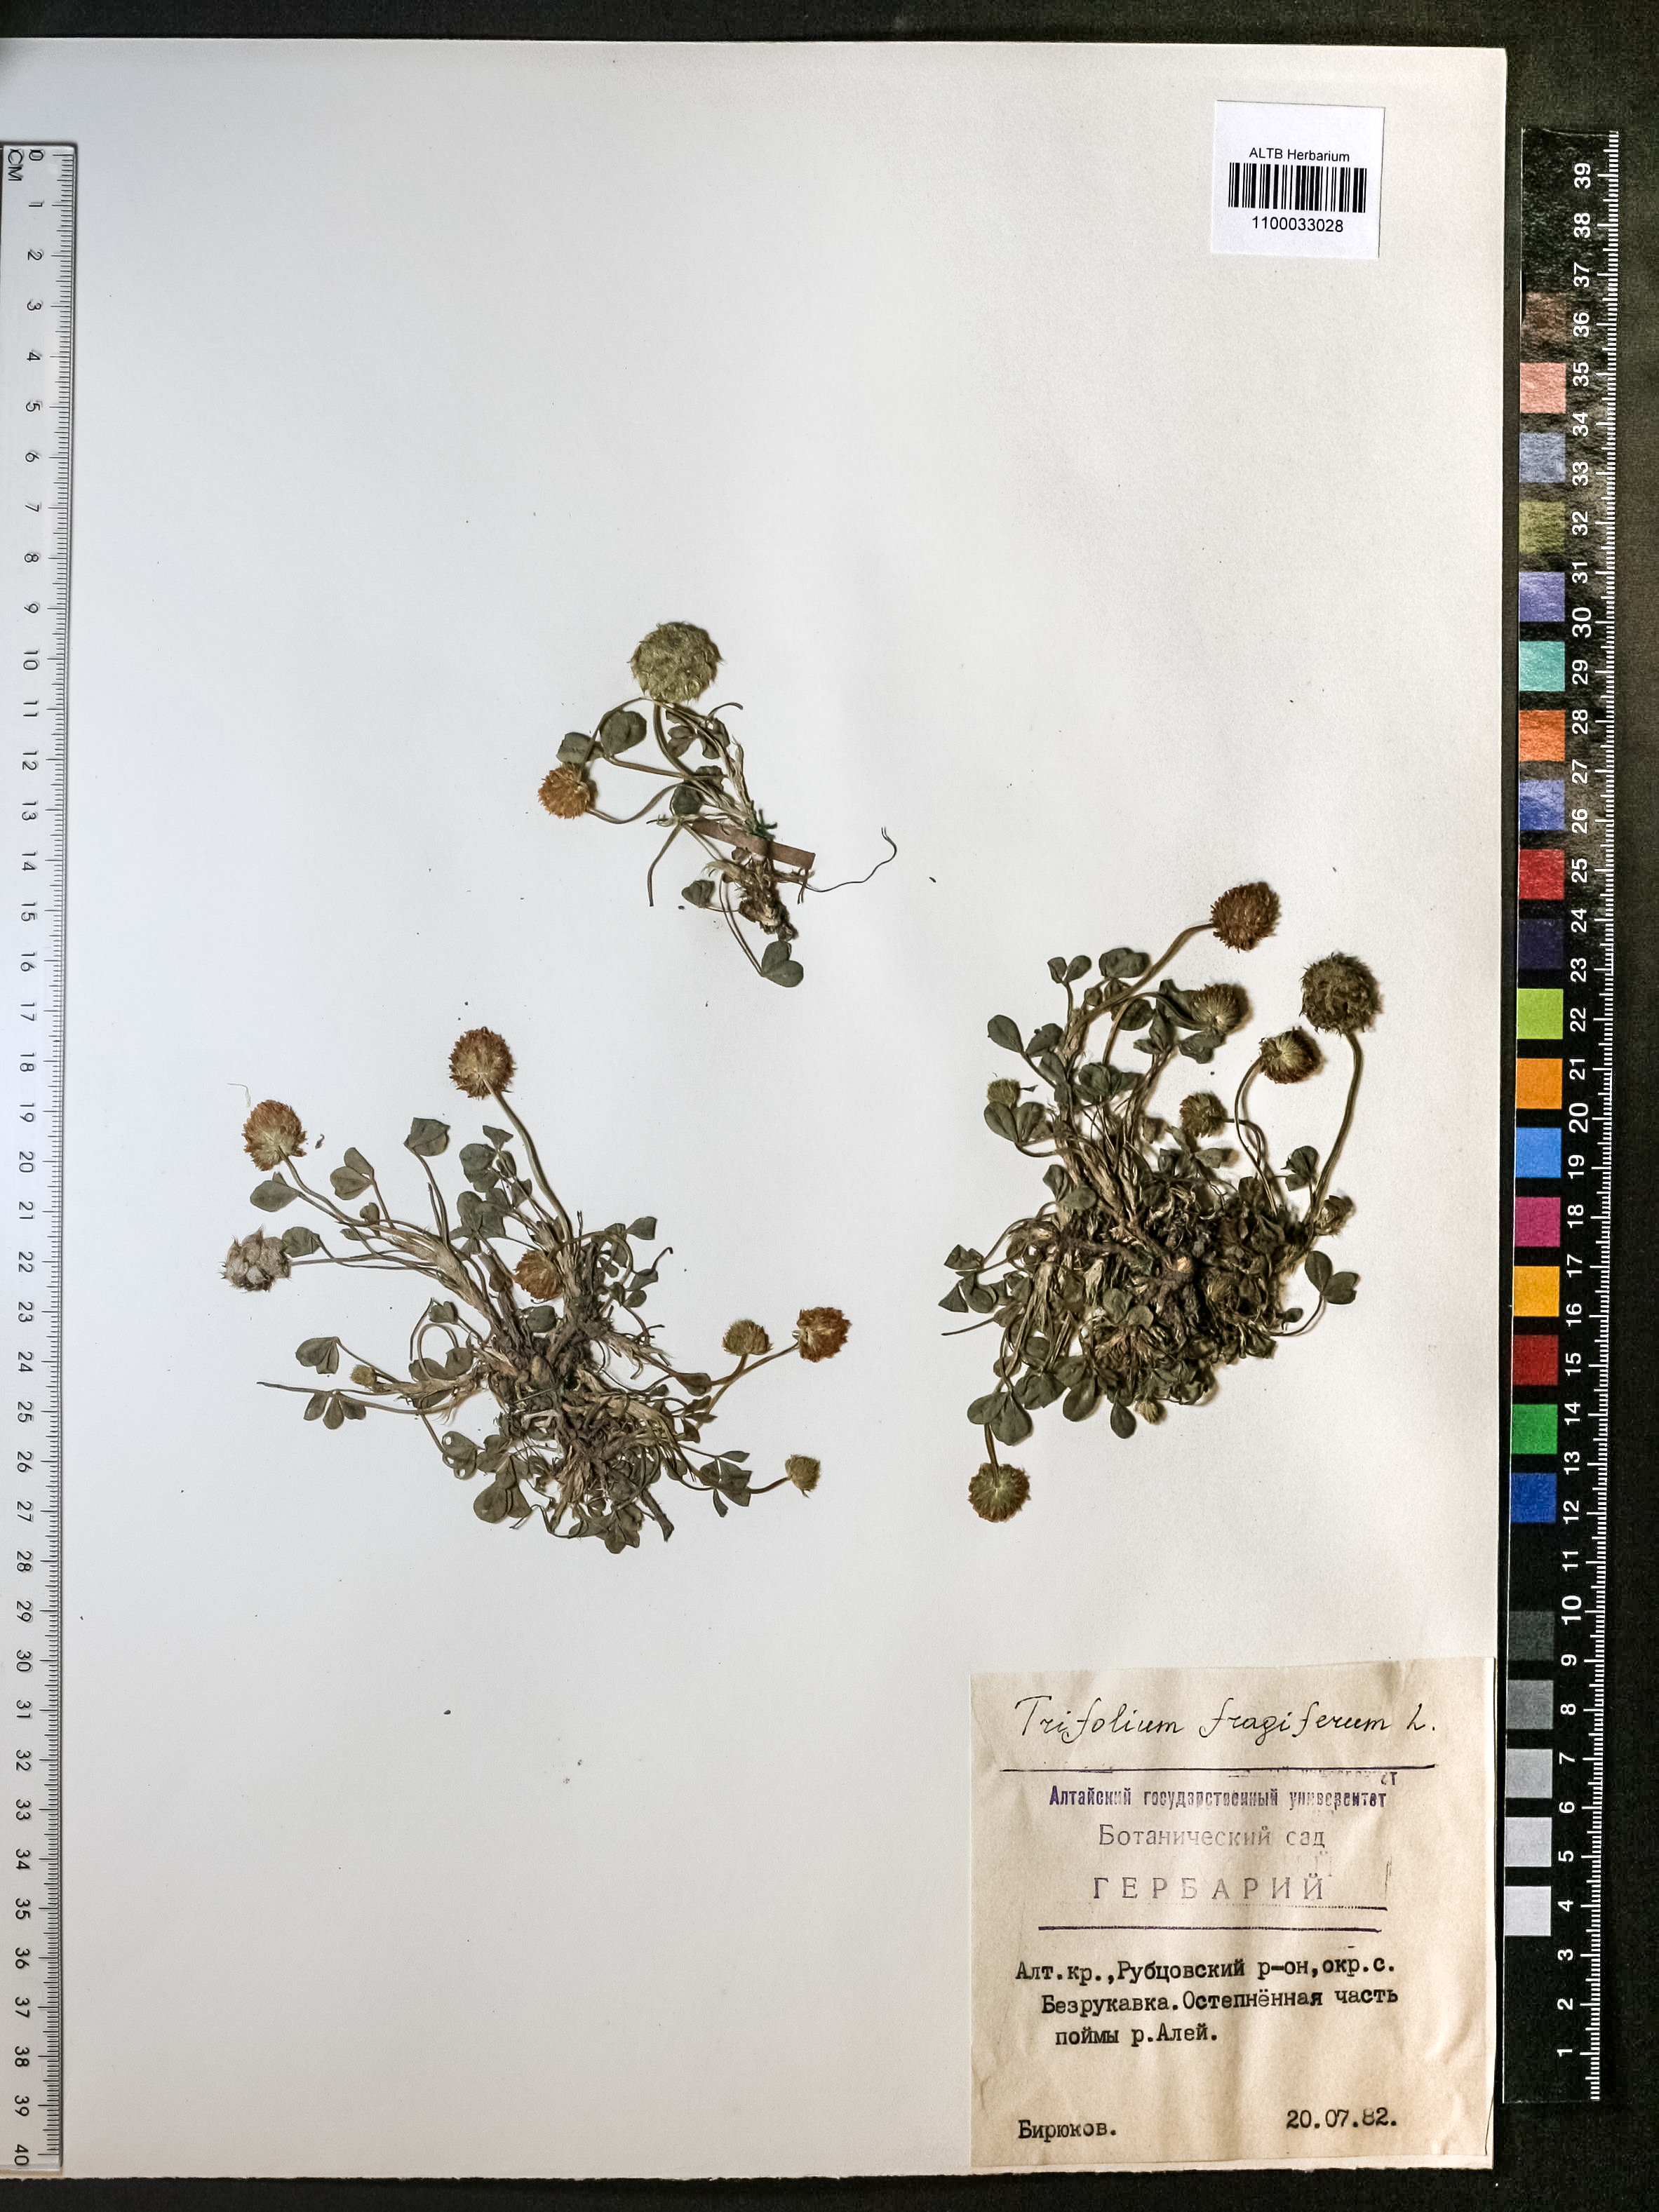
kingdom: Plantae
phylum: Tracheophyta
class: Magnoliopsida
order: Fabales
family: Fabaceae
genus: Trifolium
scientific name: Trifolium fragiferum
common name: Strawberry clover
